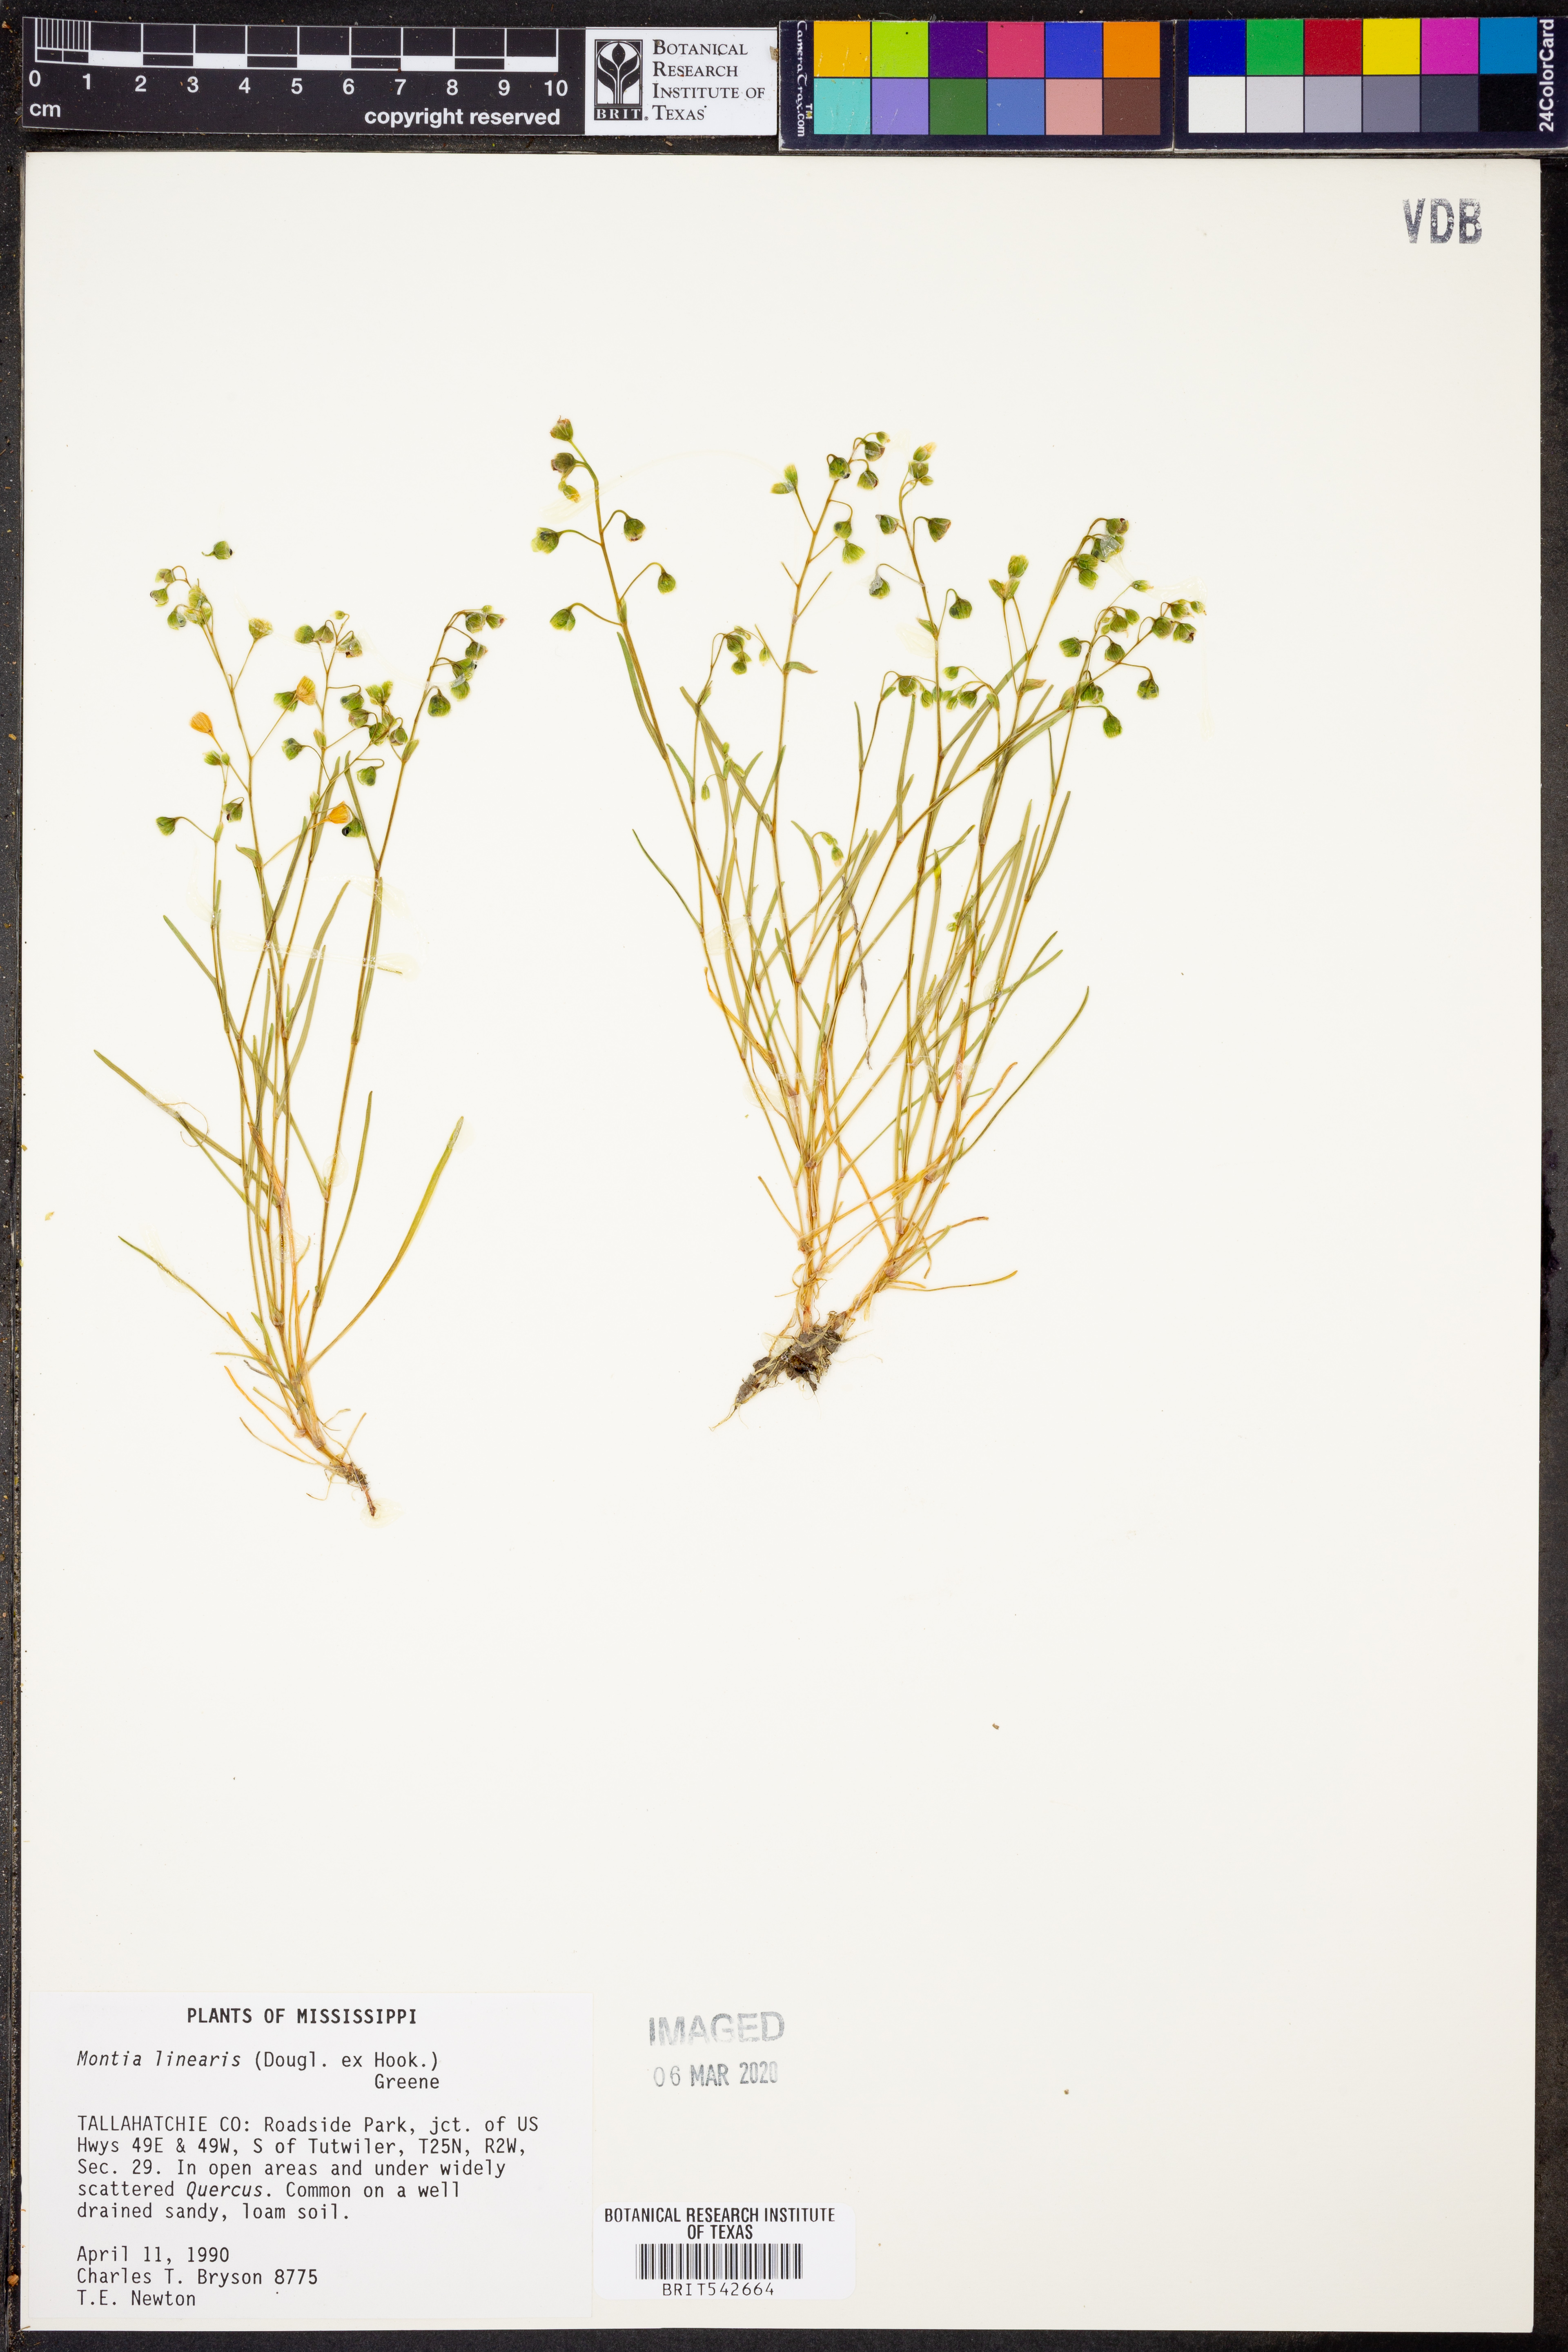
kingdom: Plantae
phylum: Tracheophyta
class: Magnoliopsida
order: Caryophyllales
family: Montiaceae
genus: Montia
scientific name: Montia linearis
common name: Narrow-leaf montia
